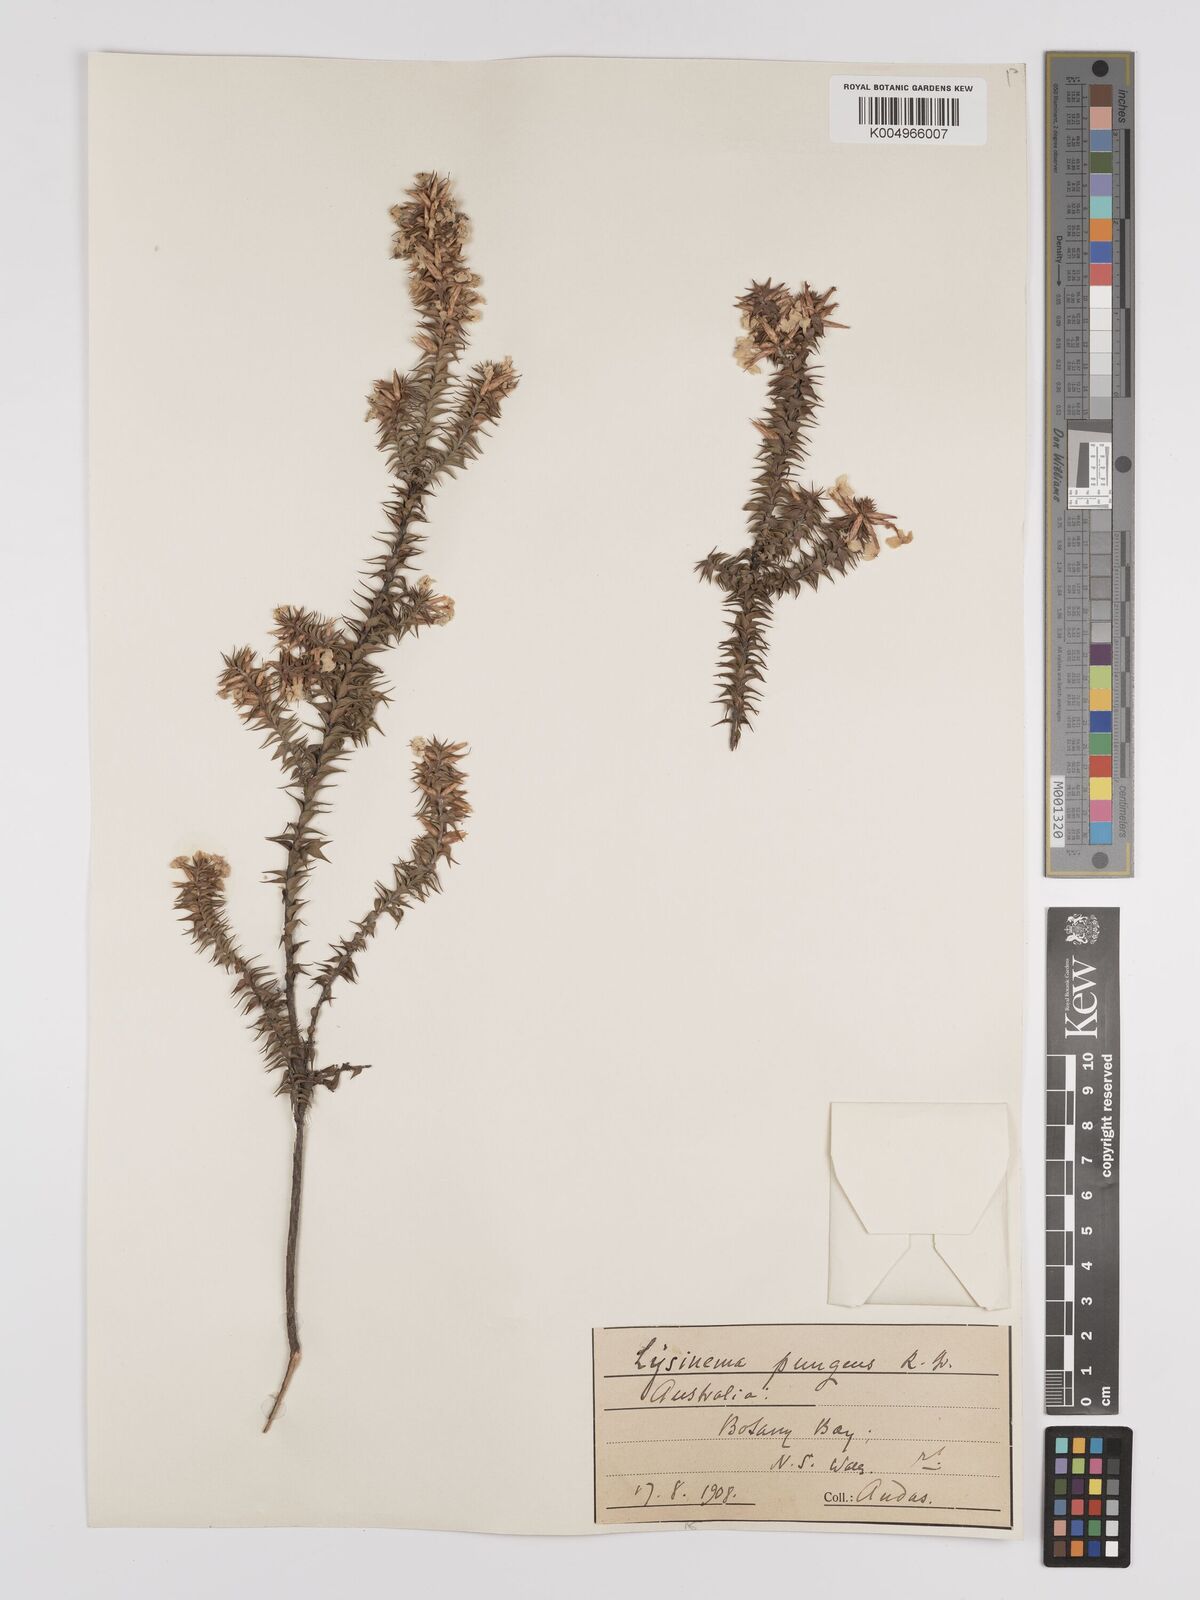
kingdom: Plantae
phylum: Tracheophyta
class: Magnoliopsida
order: Ericales
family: Ericaceae
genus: Woollsia
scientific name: Woollsia pungens
